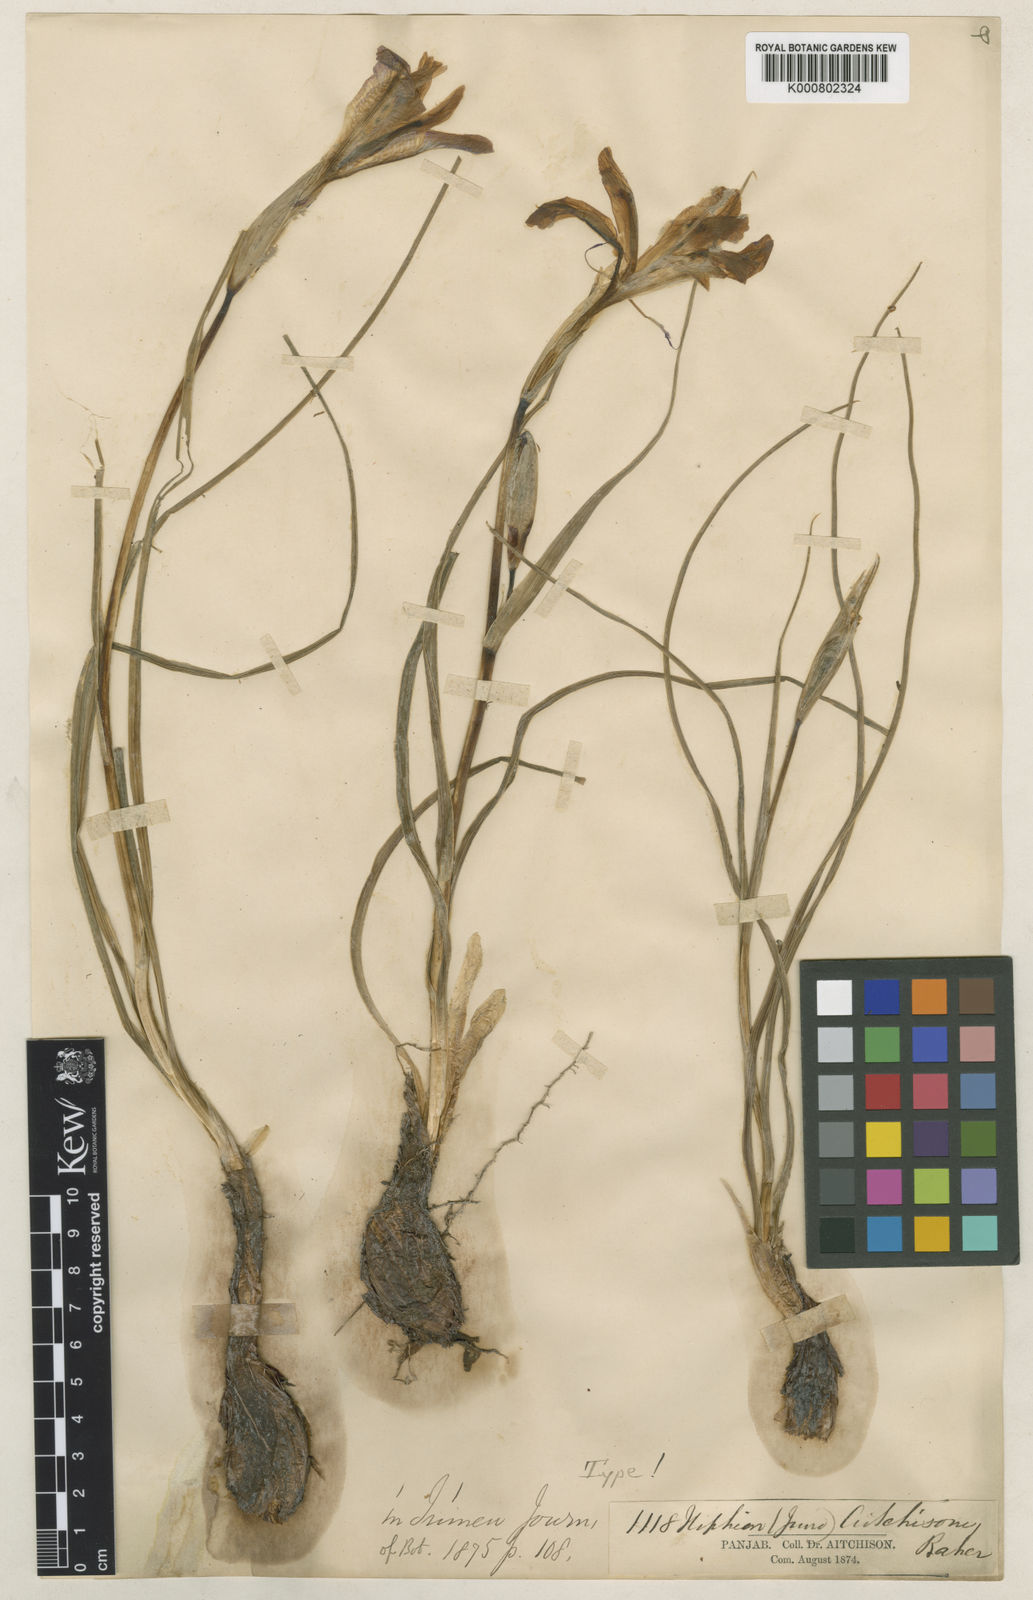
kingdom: Plantae
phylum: Tracheophyta
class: Liliopsida
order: Asparagales
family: Iridaceae
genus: Iris
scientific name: Iris aitchisonii
